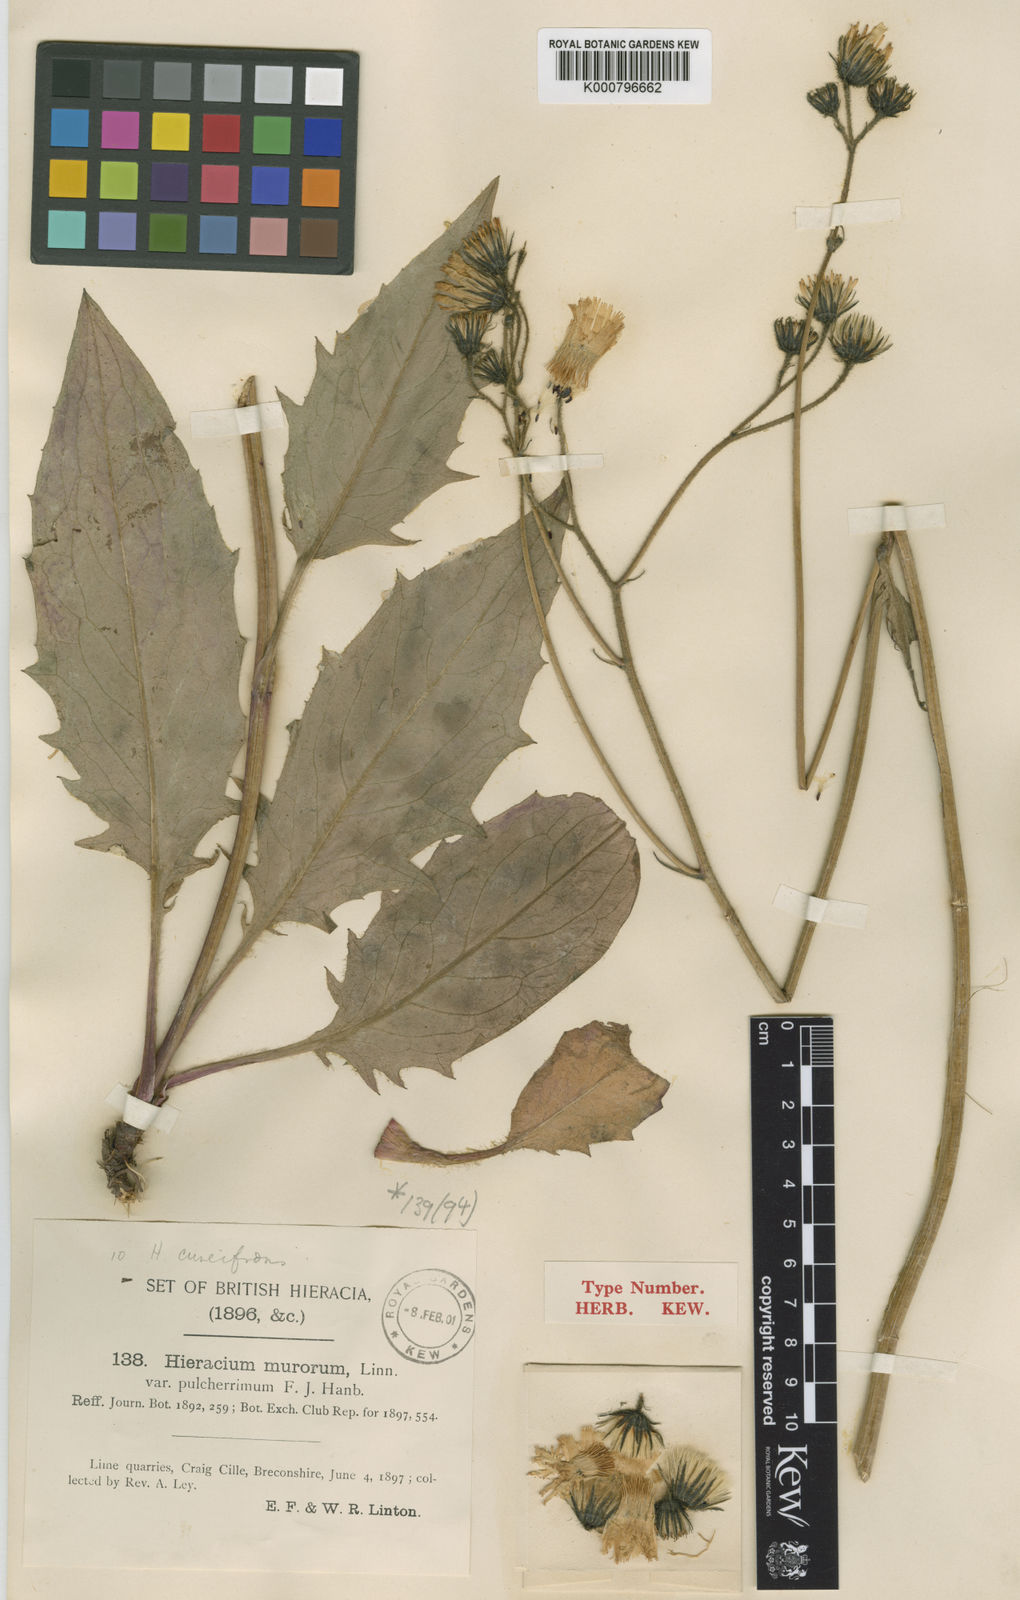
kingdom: Plantae
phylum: Tracheophyta
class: Magnoliopsida
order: Asterales
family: Asteraceae
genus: Hieracium
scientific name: Hieracium cuneifrons
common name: Wedge-leaved hawkweed
